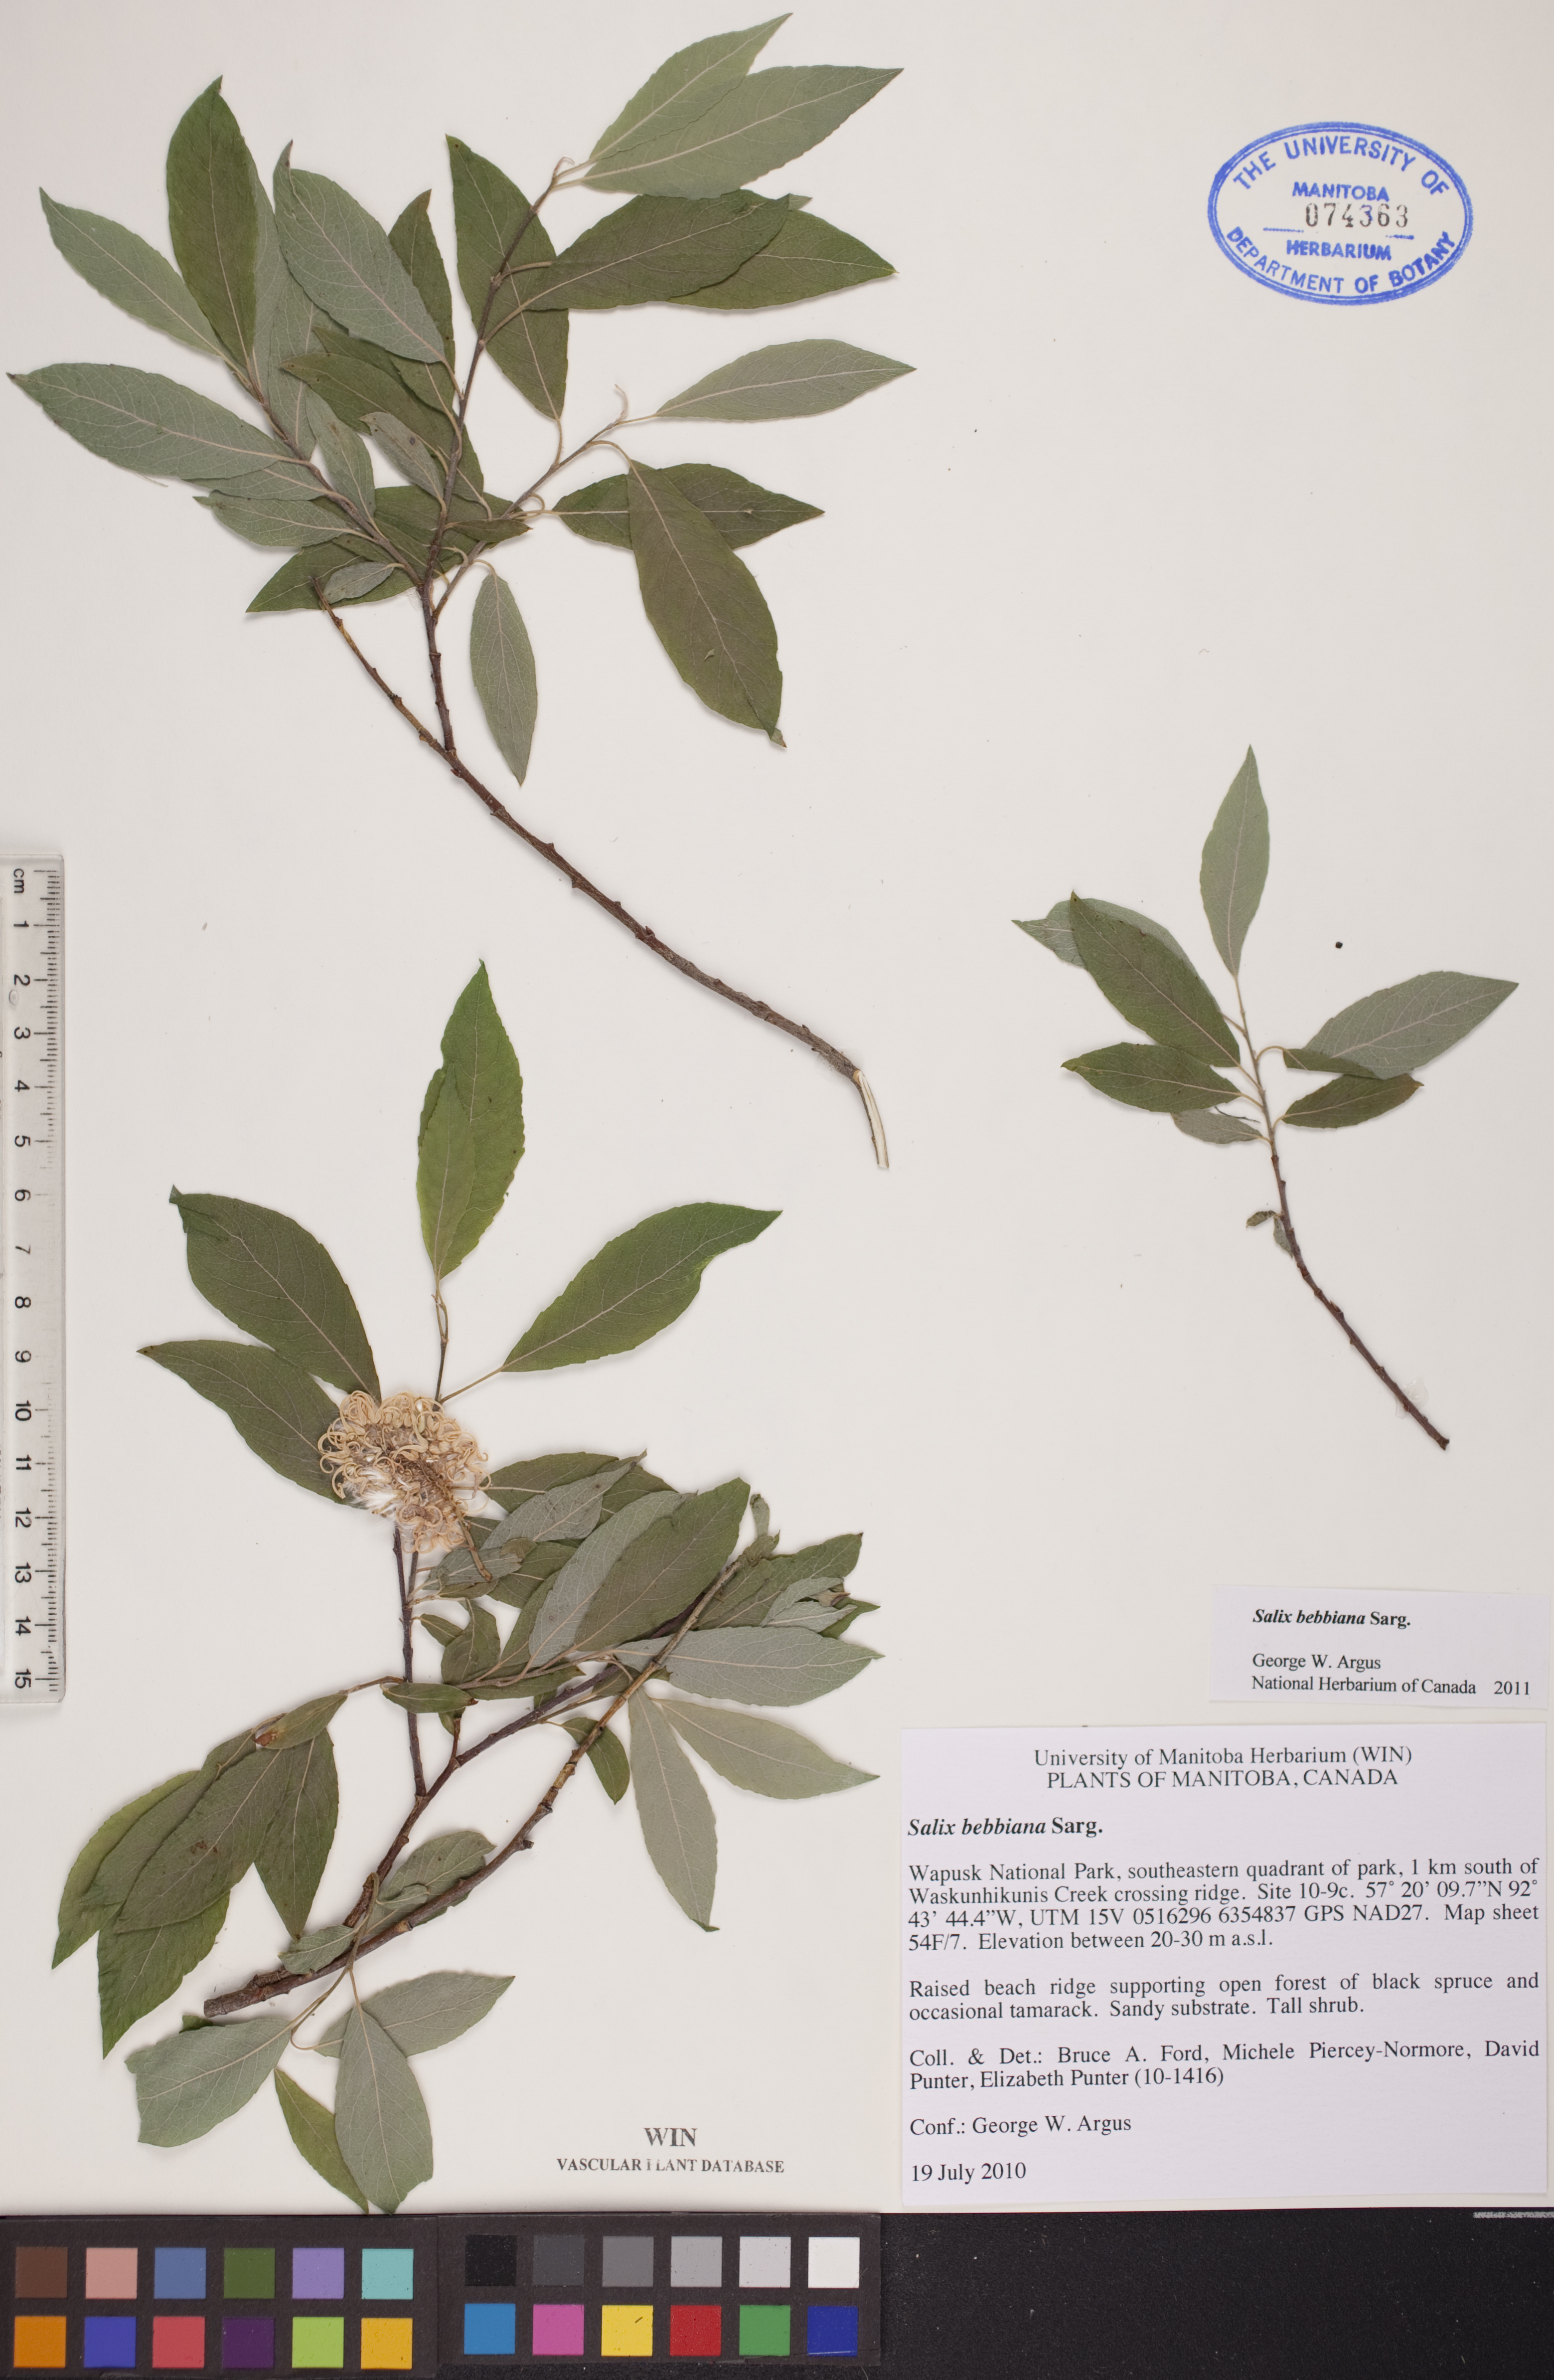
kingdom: Plantae
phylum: Tracheophyta
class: Magnoliopsida
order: Malpighiales
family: Salicaceae
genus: Salix
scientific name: Salix bebbiana
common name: Bebb's willow
